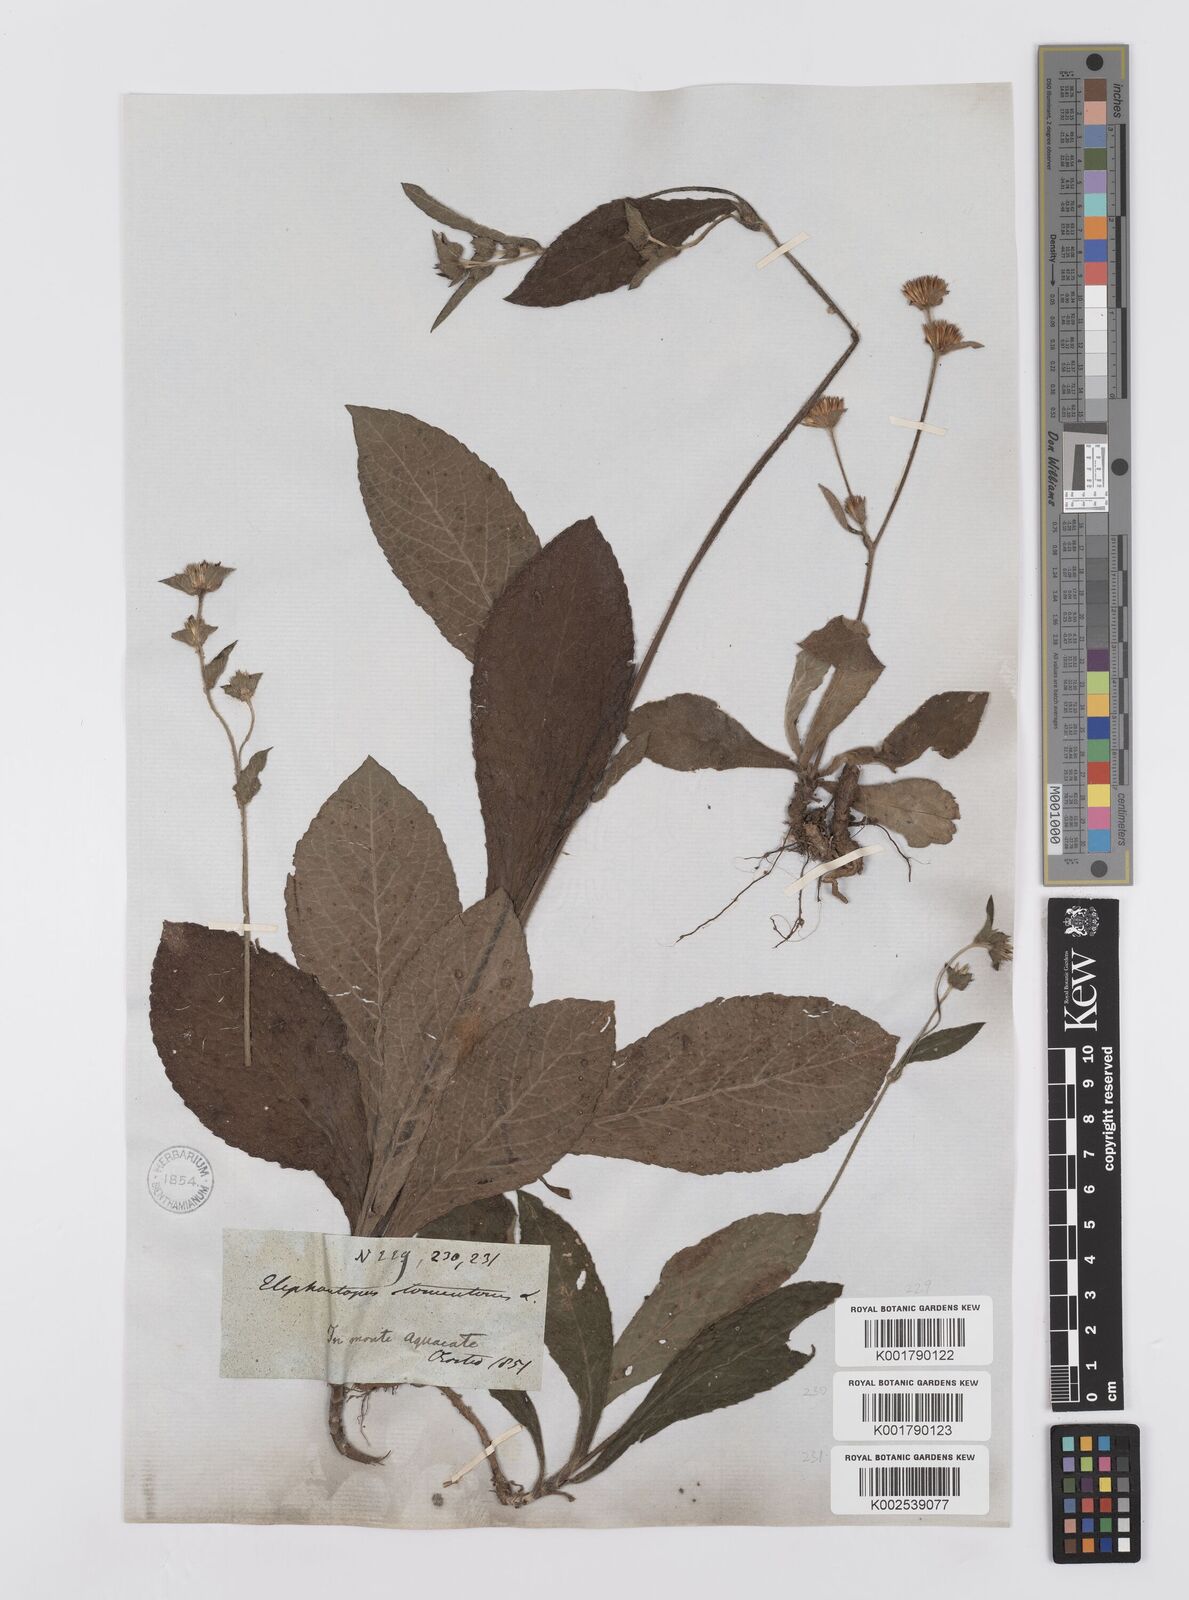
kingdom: Plantae
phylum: Tracheophyta
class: Magnoliopsida
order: Asterales
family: Asteraceae
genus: Elephantopus
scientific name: Elephantopus tomentosus
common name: Tobacco-weed
